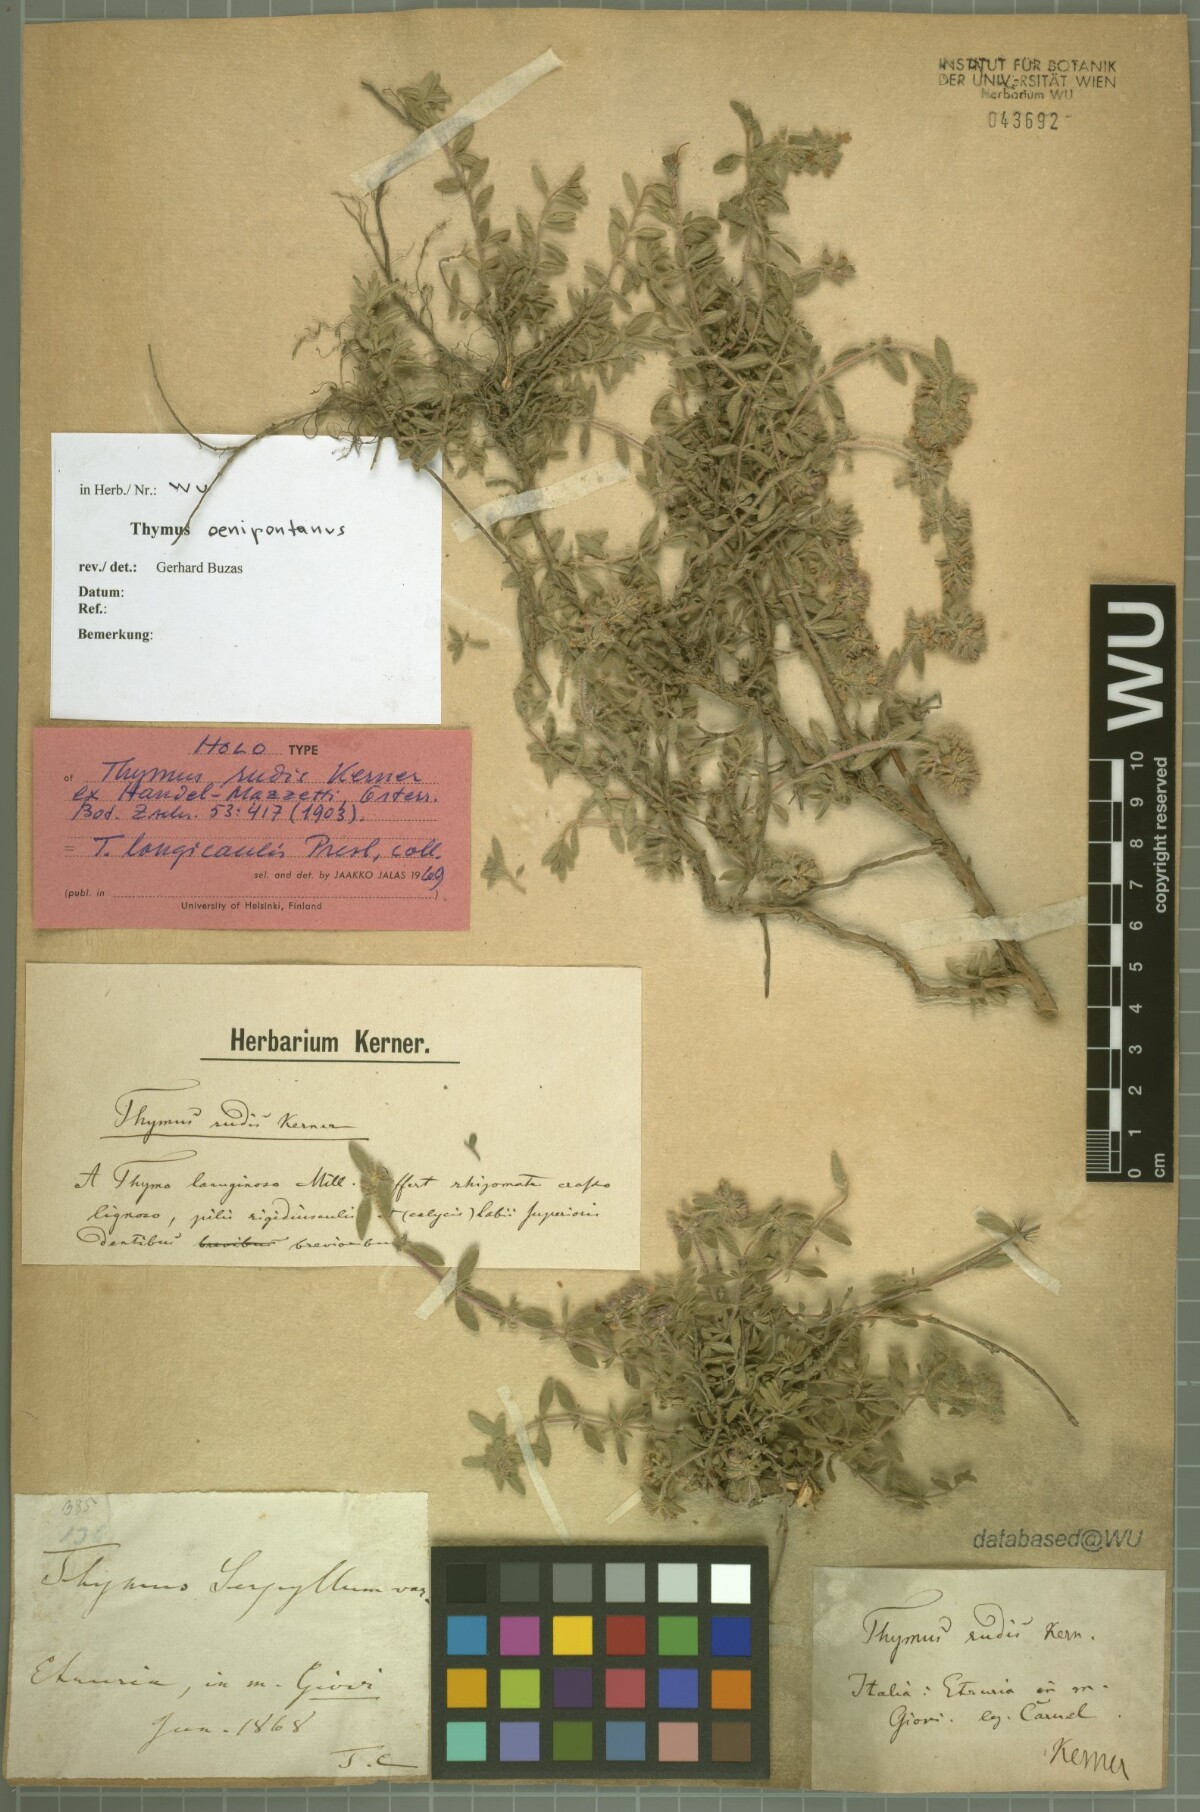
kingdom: Plantae
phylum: Tracheophyta
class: Magnoliopsida
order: Lamiales
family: Lamiaceae
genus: Thymus
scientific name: Thymus rudis
